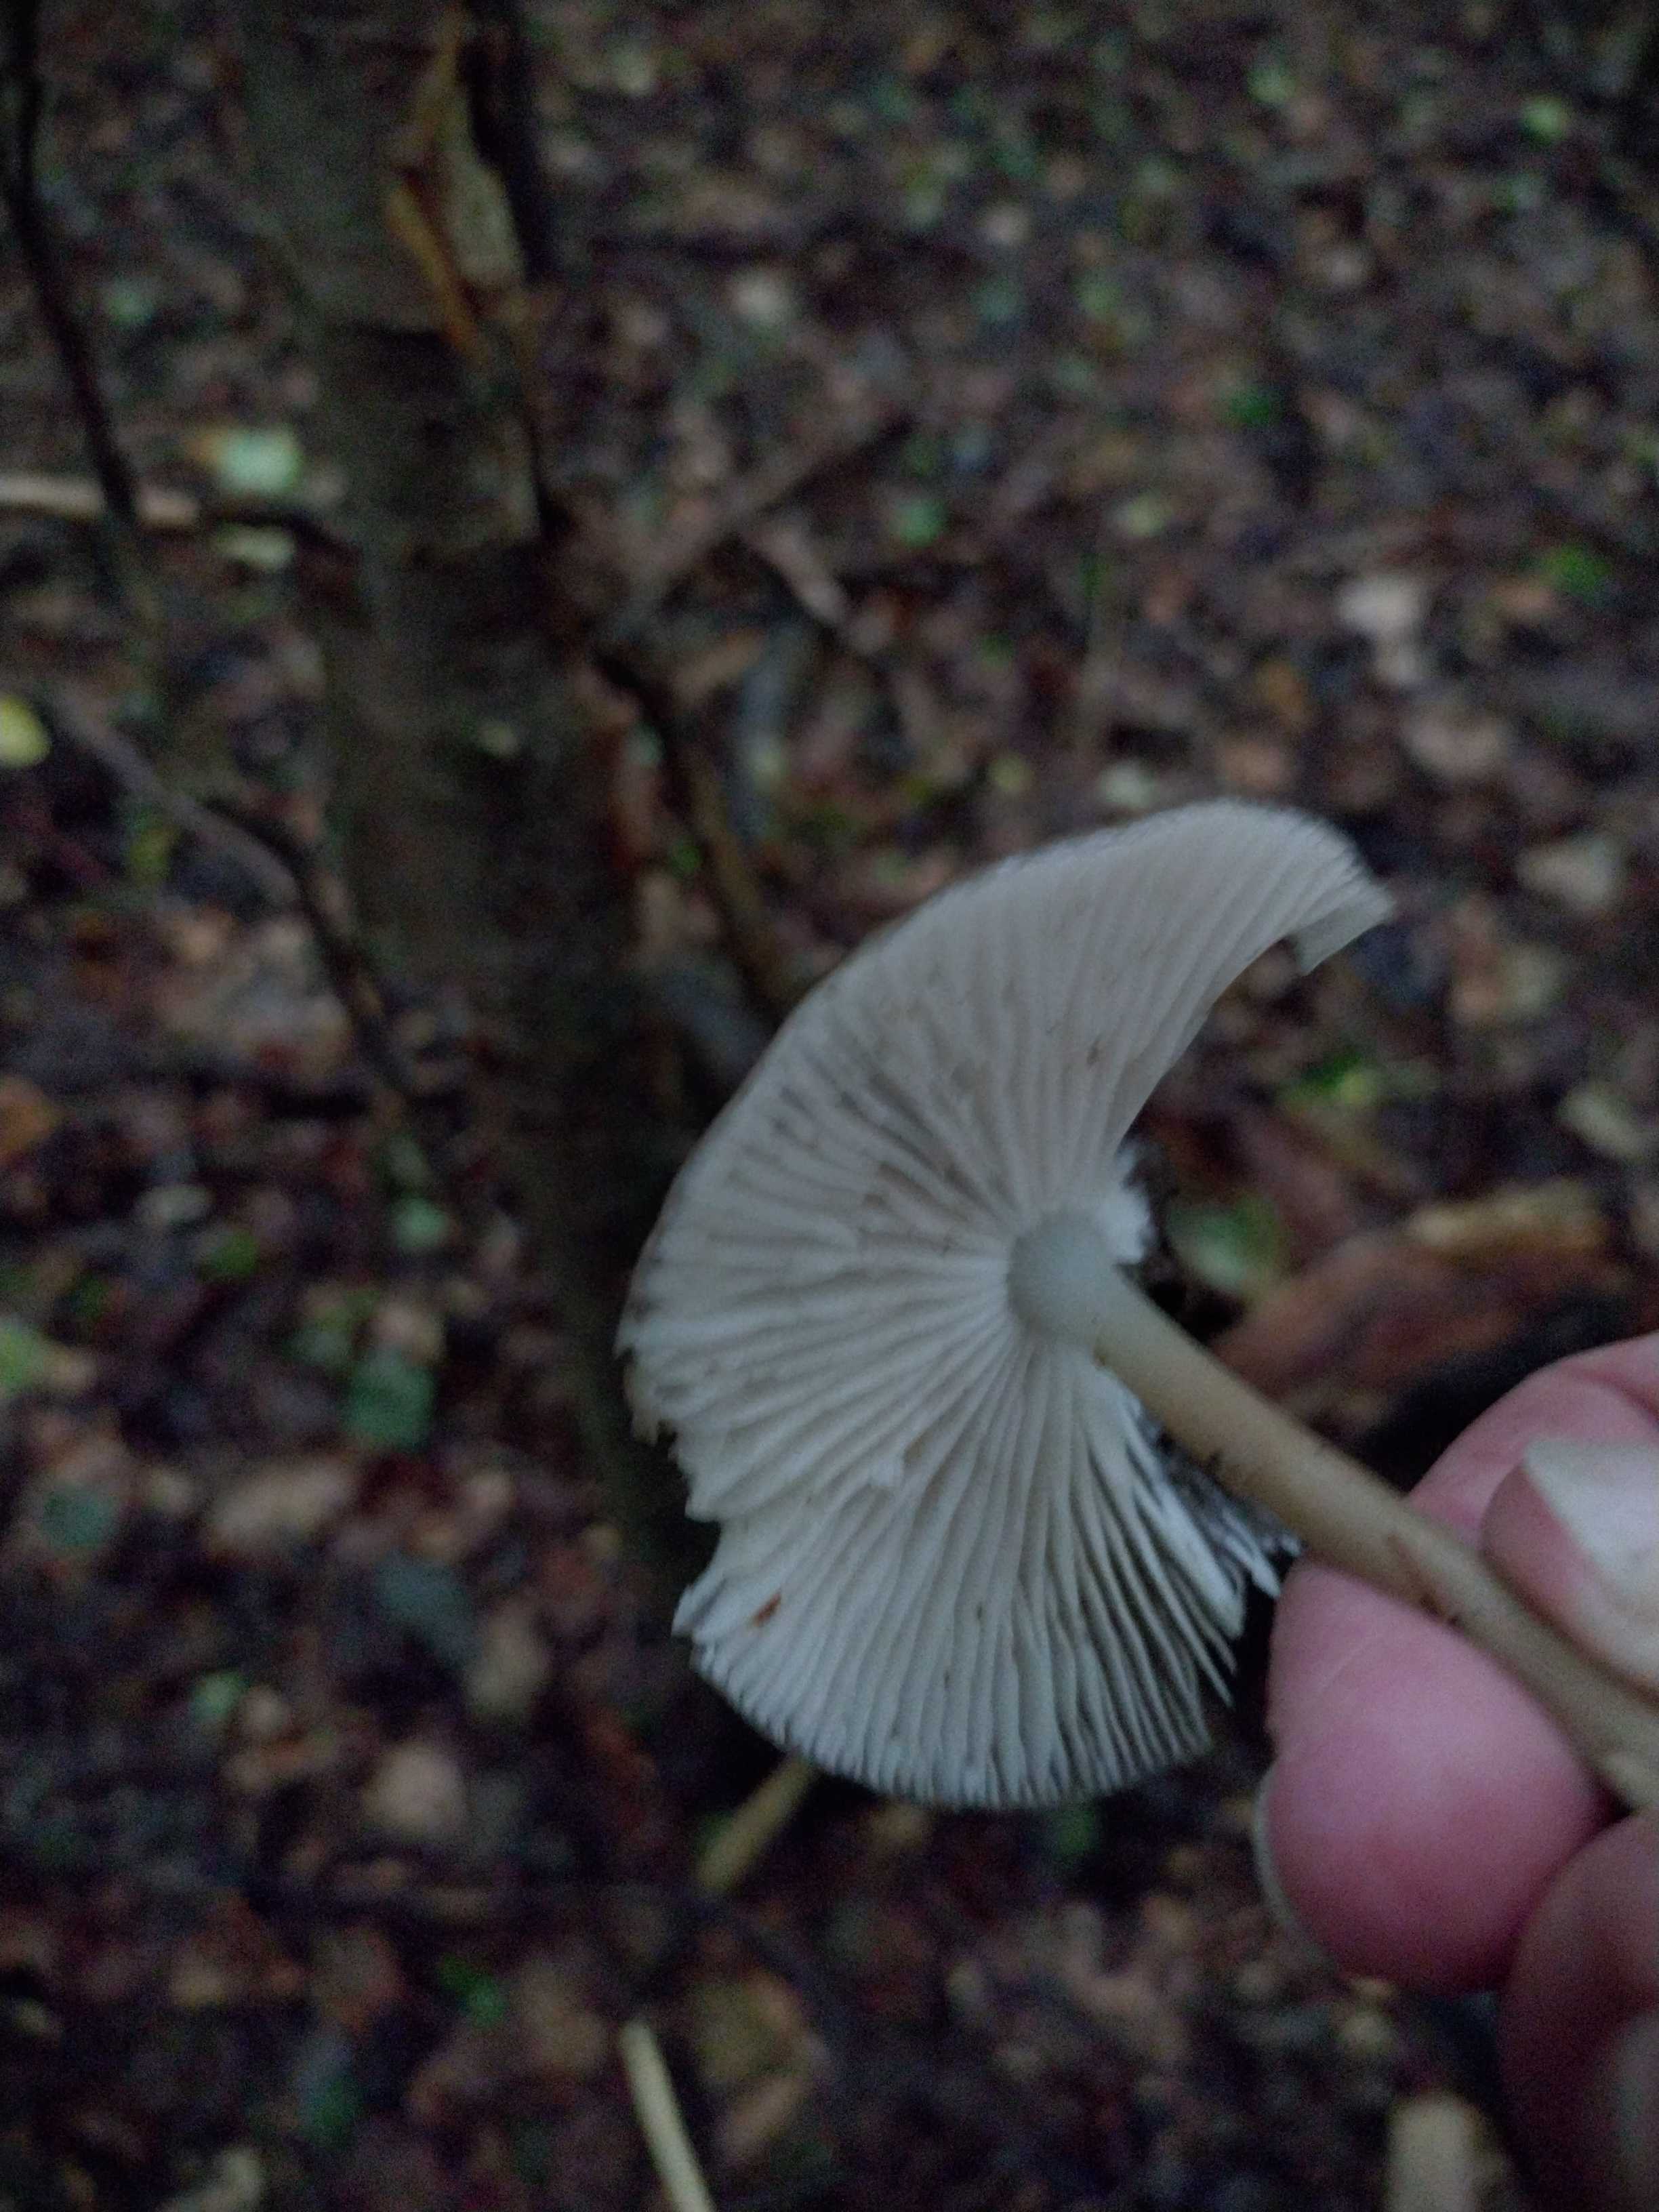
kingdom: Fungi
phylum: Basidiomycota
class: Agaricomycetes
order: Agaricales
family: Physalacriaceae
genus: Hymenopellis
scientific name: Hymenopellis radicata
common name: almindelig pælerodshat
